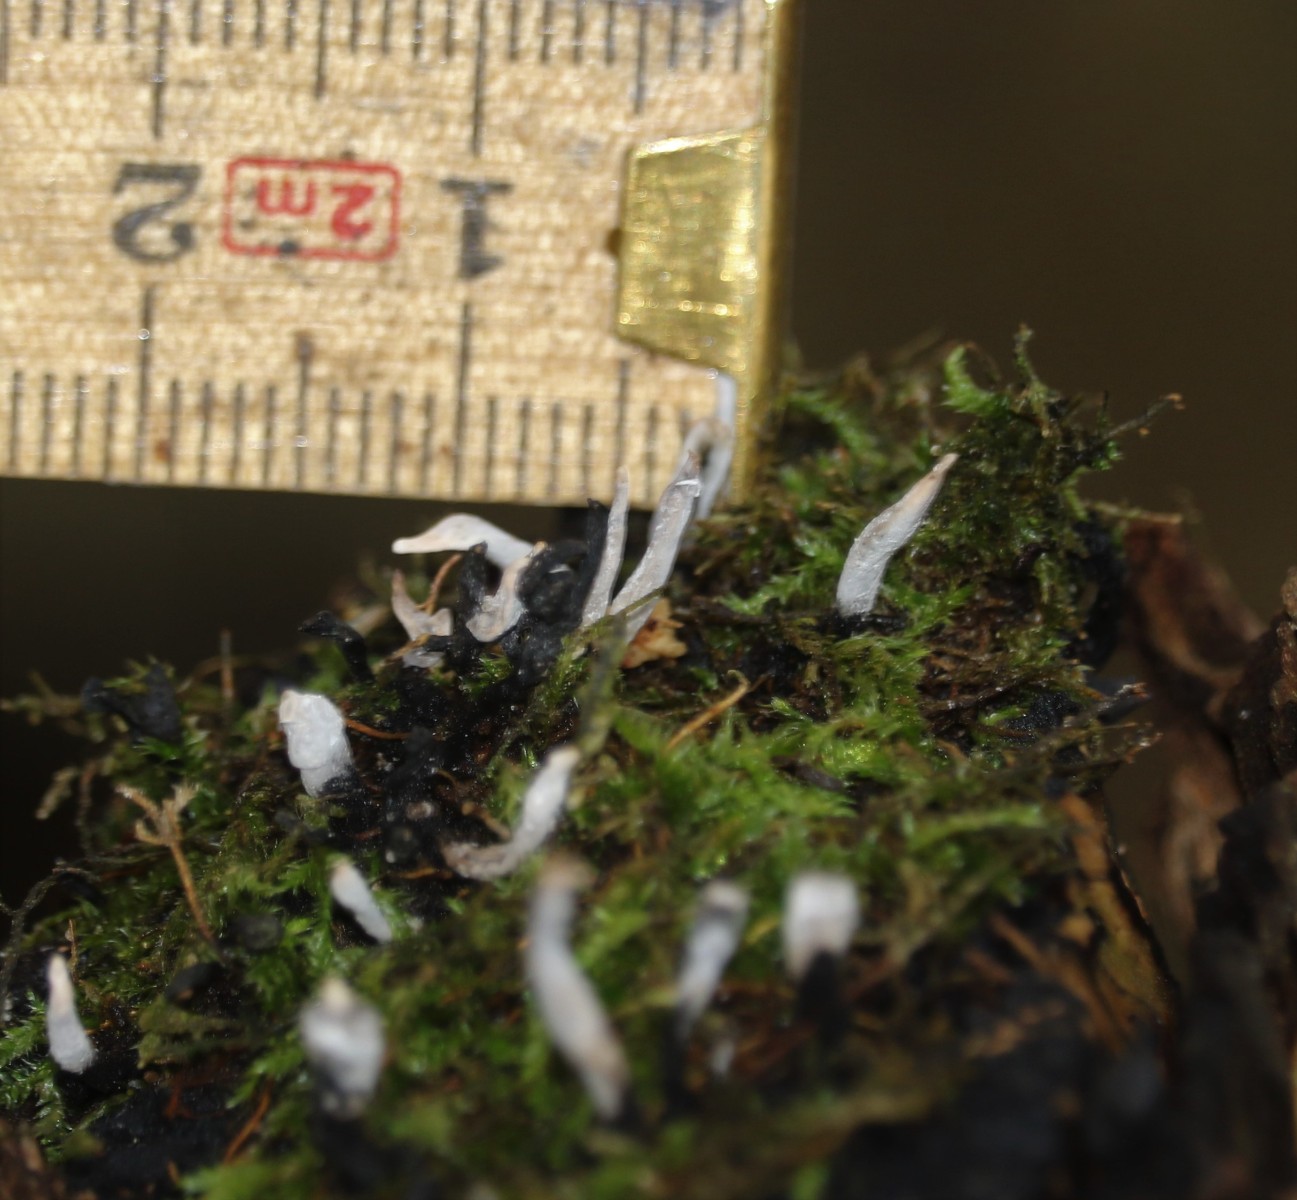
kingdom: Fungi
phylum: Ascomycota
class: Sordariomycetes
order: Xylariales
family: Xylariaceae
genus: Xylaria
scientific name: Xylaria hypoxylon
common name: grenet stødsvamp
